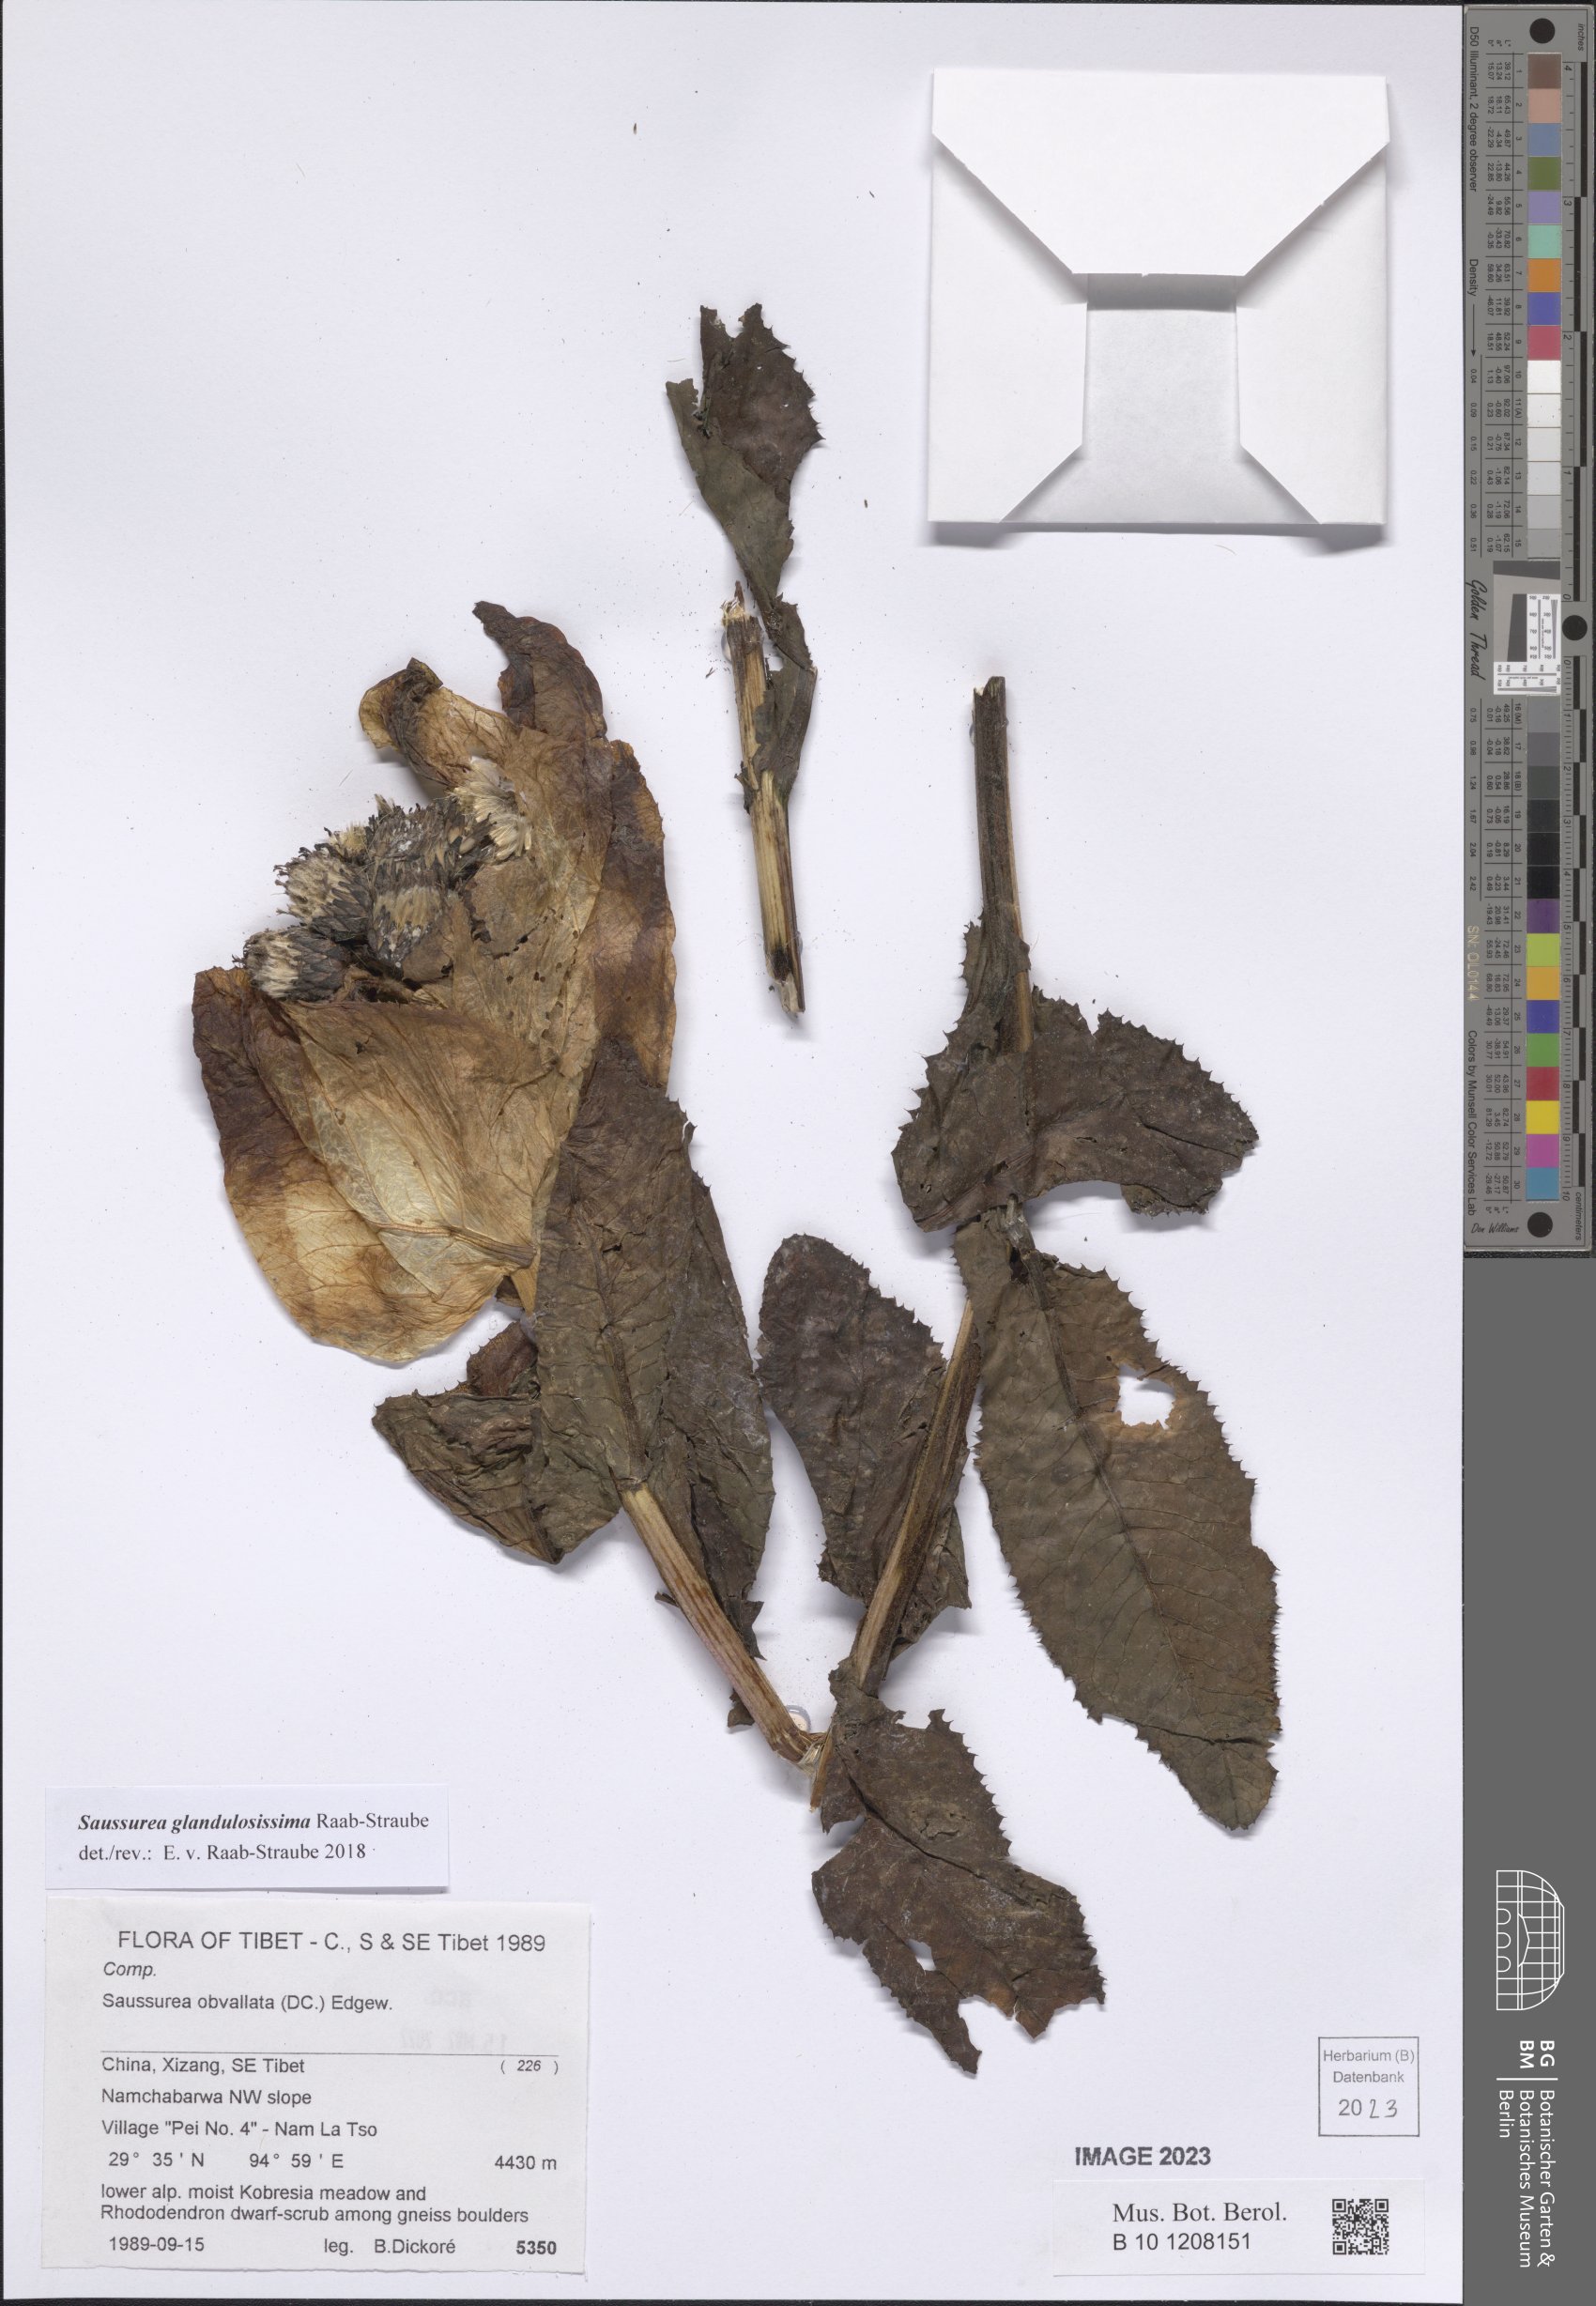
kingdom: Plantae
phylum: Tracheophyta
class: Magnoliopsida
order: Asterales
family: Asteraceae
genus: Saussurea
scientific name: Saussurea glandulosissima
